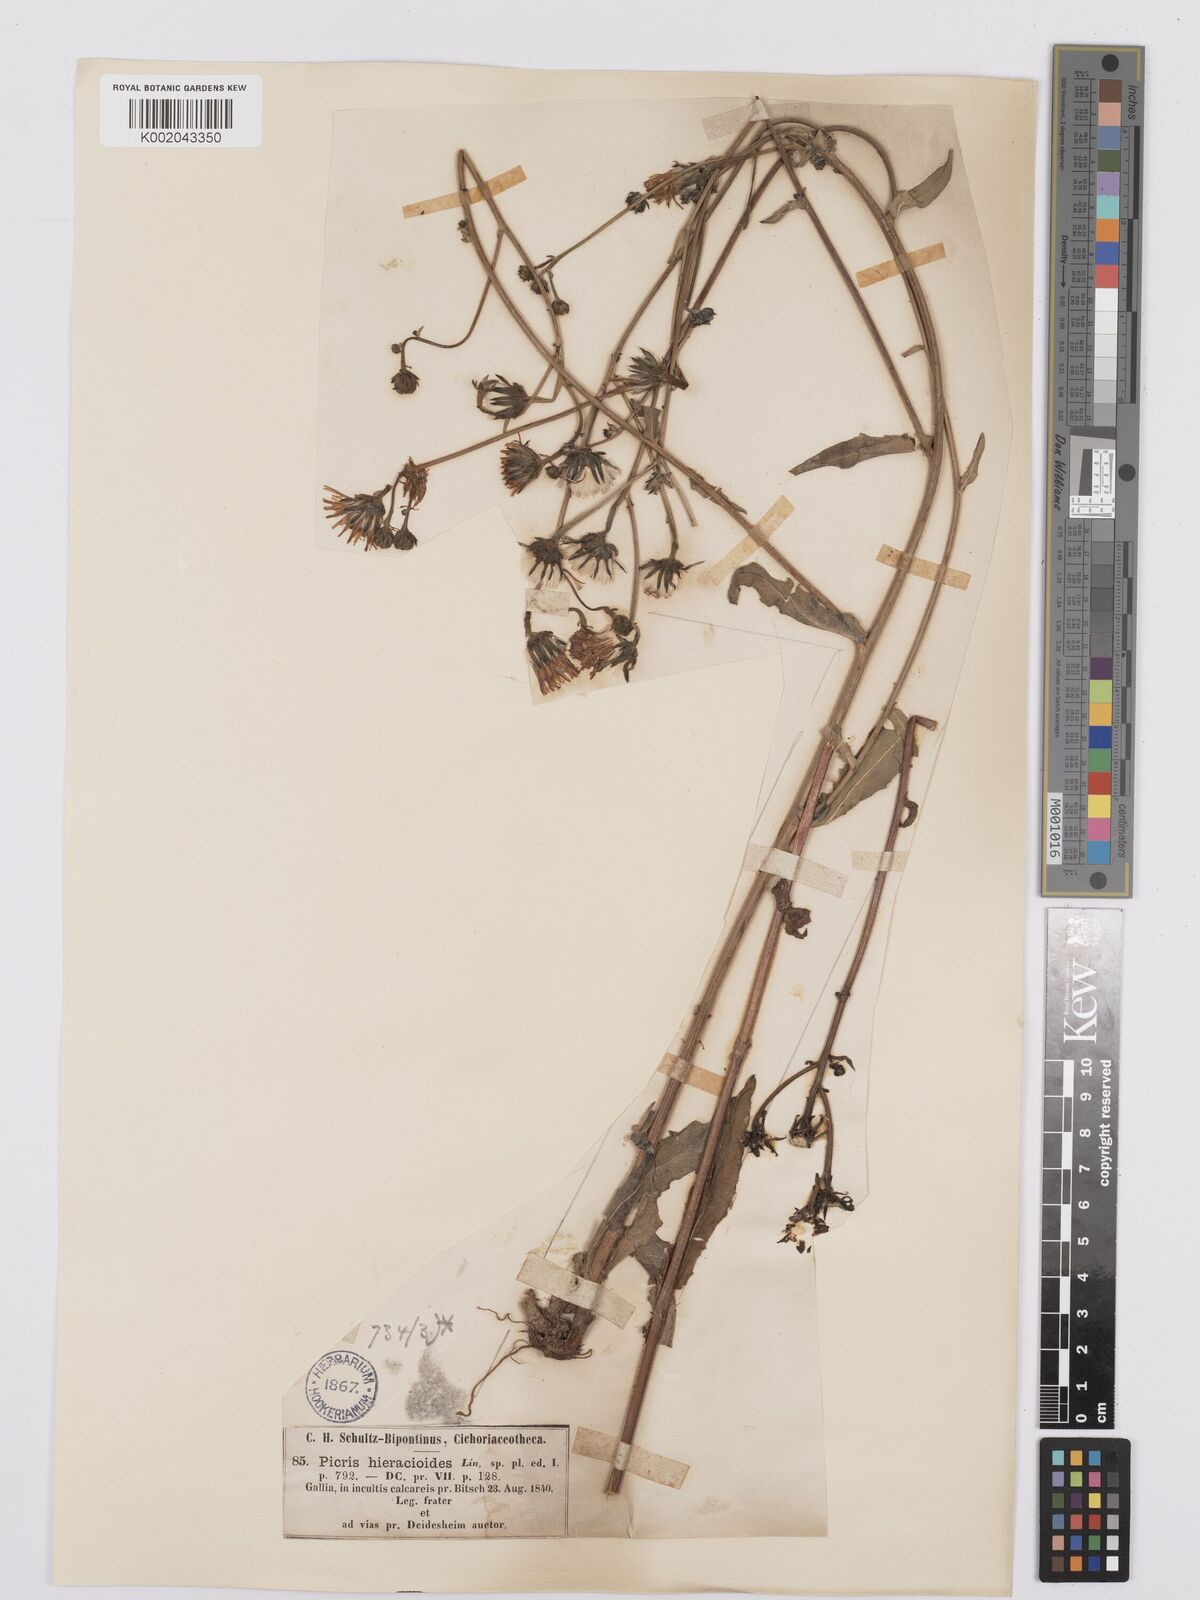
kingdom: Plantae
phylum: Tracheophyta
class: Magnoliopsida
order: Asterales
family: Asteraceae
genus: Picris
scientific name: Picris hieracioides
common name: Hawkweed oxtongue
